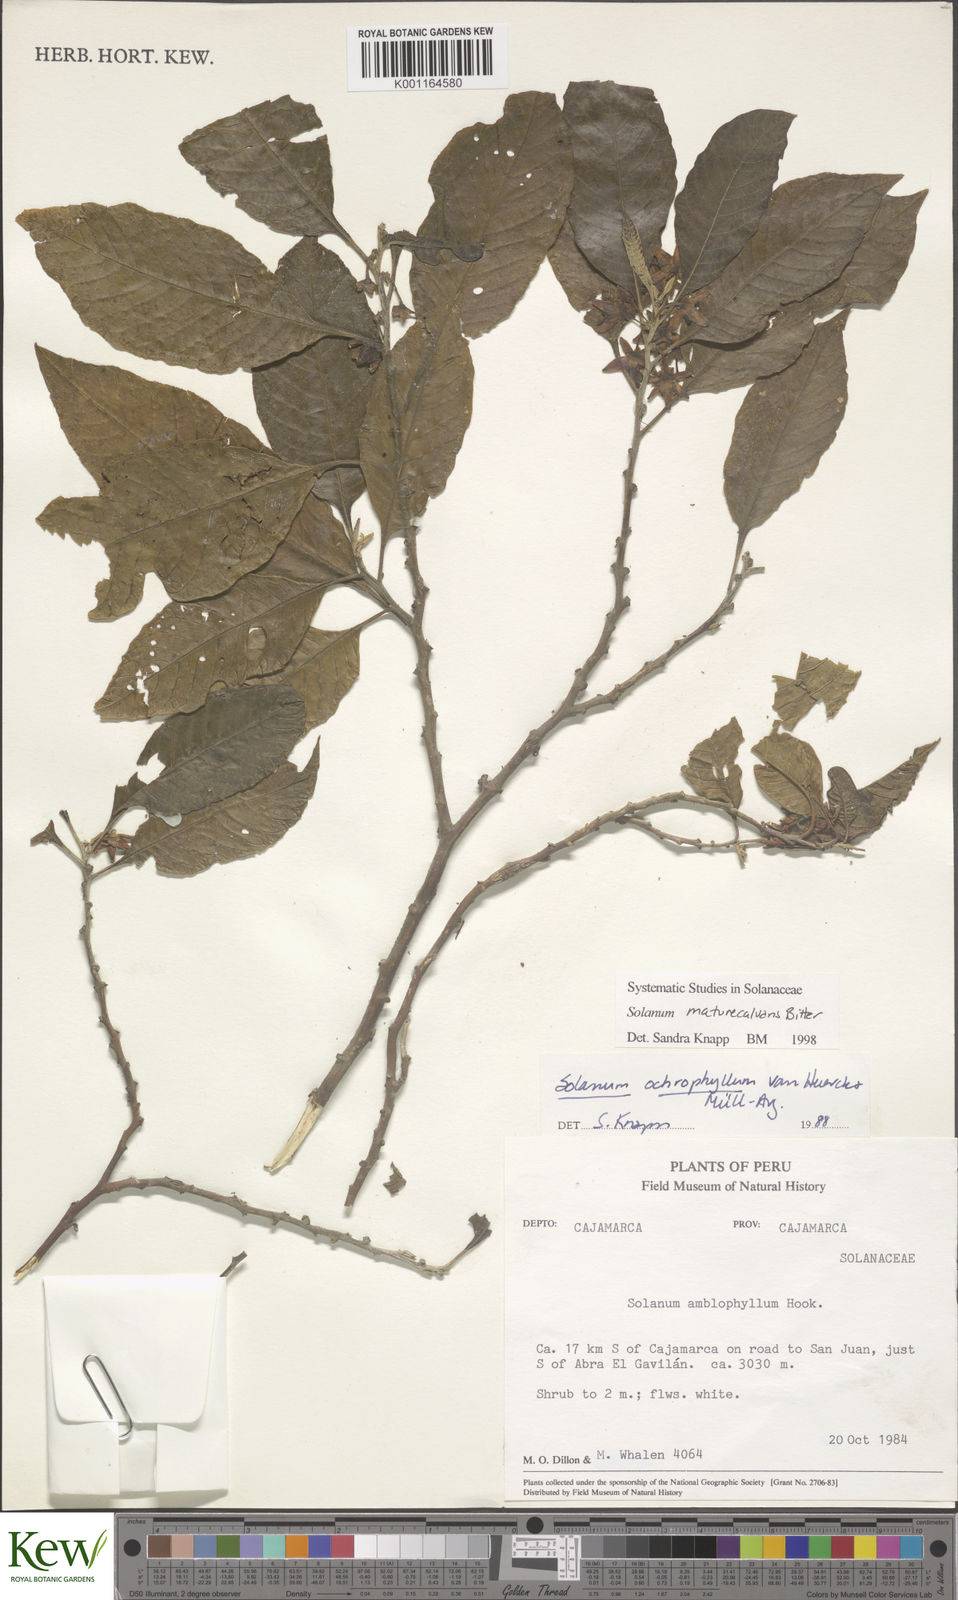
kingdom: Plantae
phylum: Tracheophyta
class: Magnoliopsida
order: Solanales
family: Solanaceae
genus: Solanum
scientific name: Solanum
